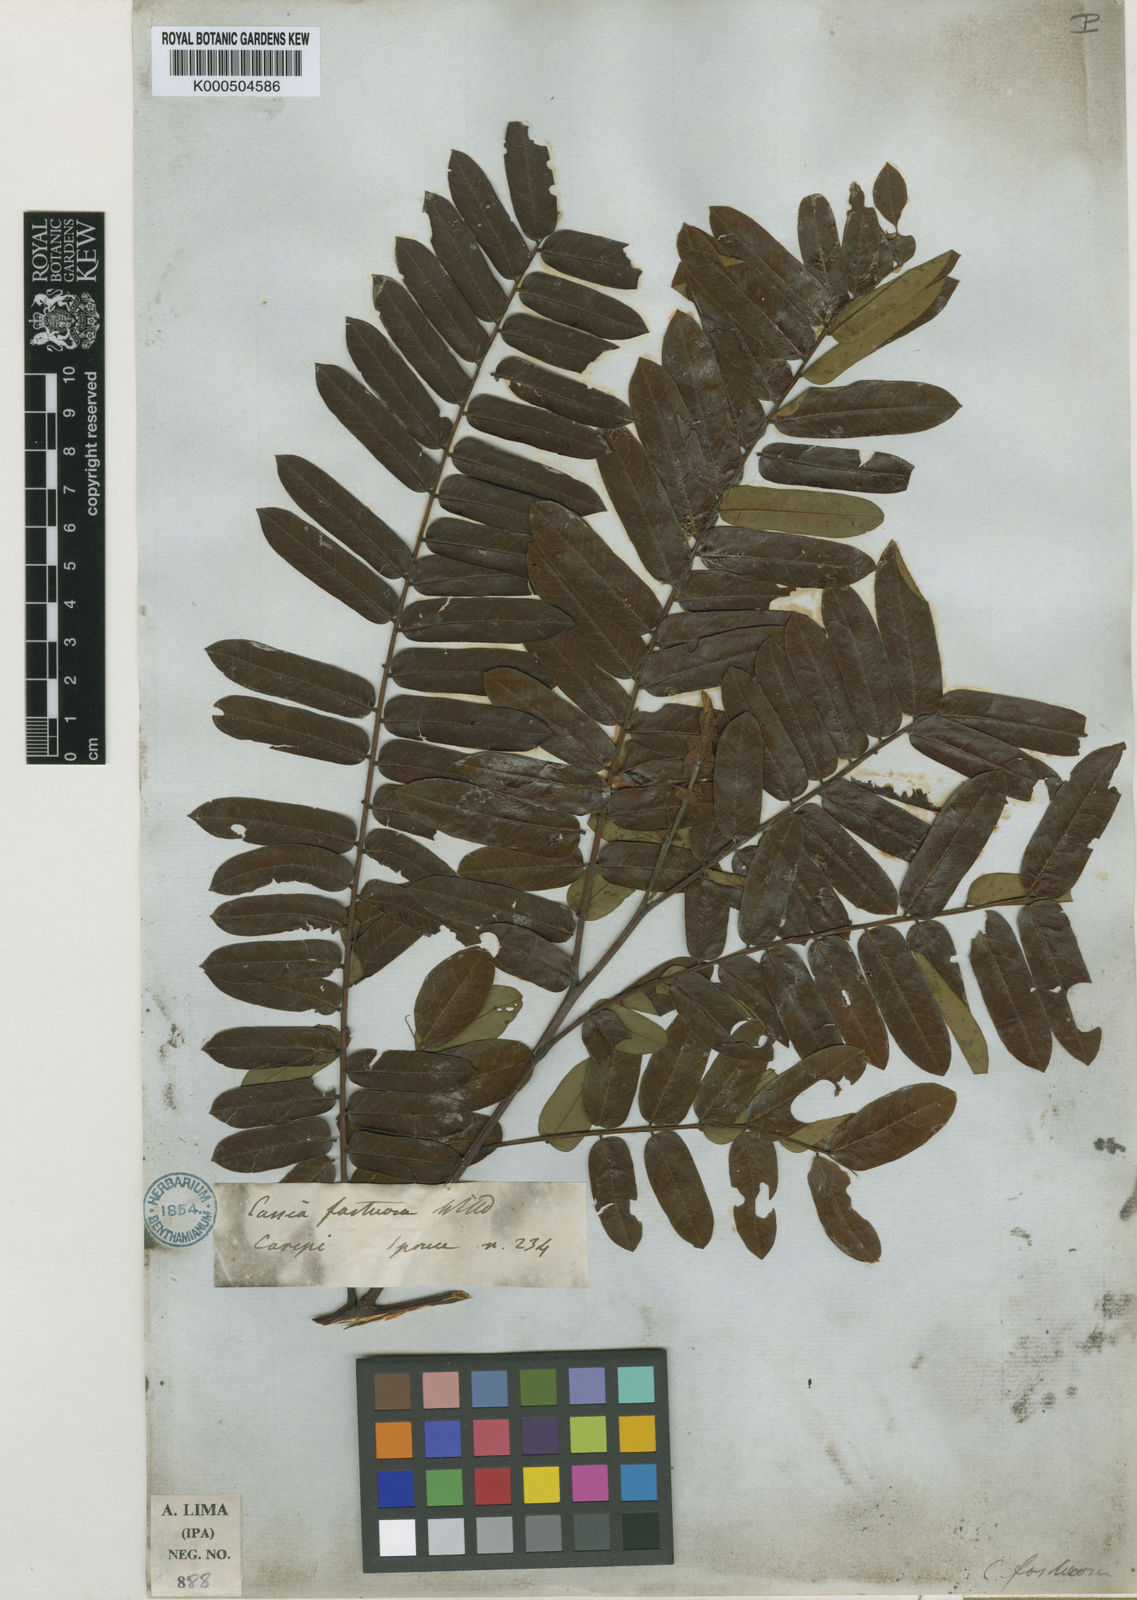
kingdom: Plantae
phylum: Tracheophyta
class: Magnoliopsida
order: Fabales
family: Fabaceae
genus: Cassia
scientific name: Cassia fastuosa
